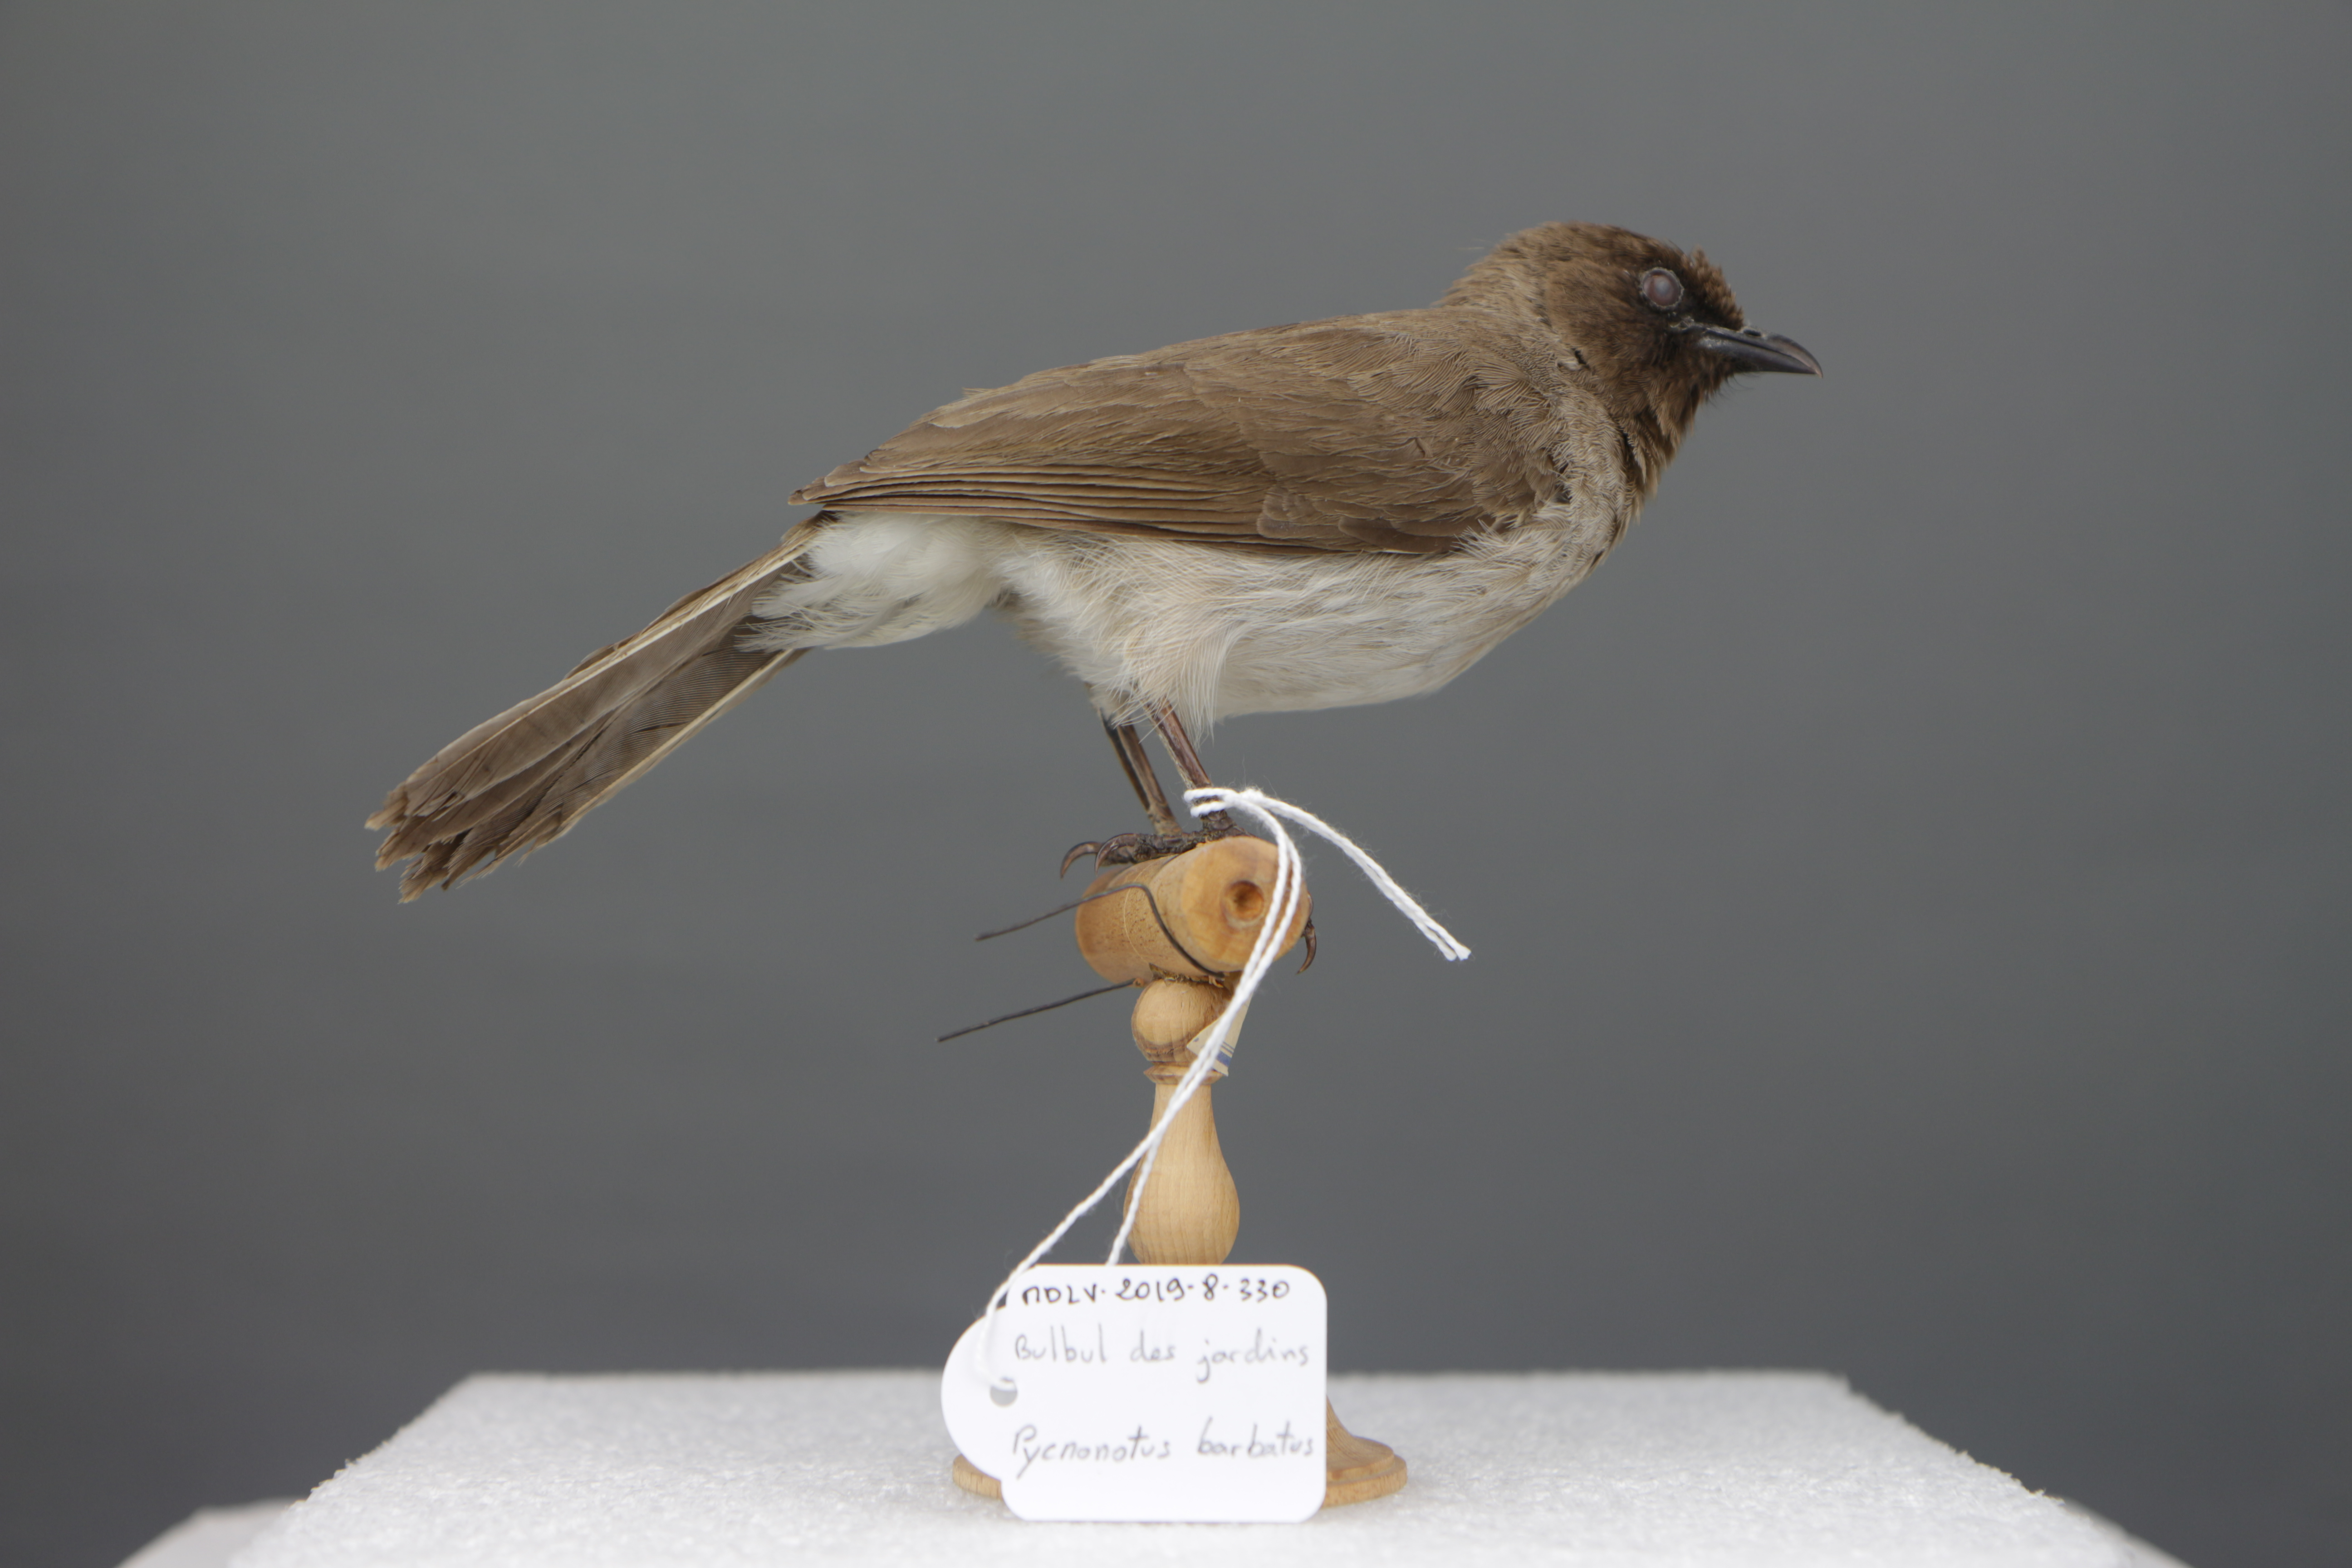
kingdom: Animalia
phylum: Chordata
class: Aves
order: Passeriformes
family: Pycnonotidae
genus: Pycnonotus
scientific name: Pycnonotus barbatus
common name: Common bulbul
